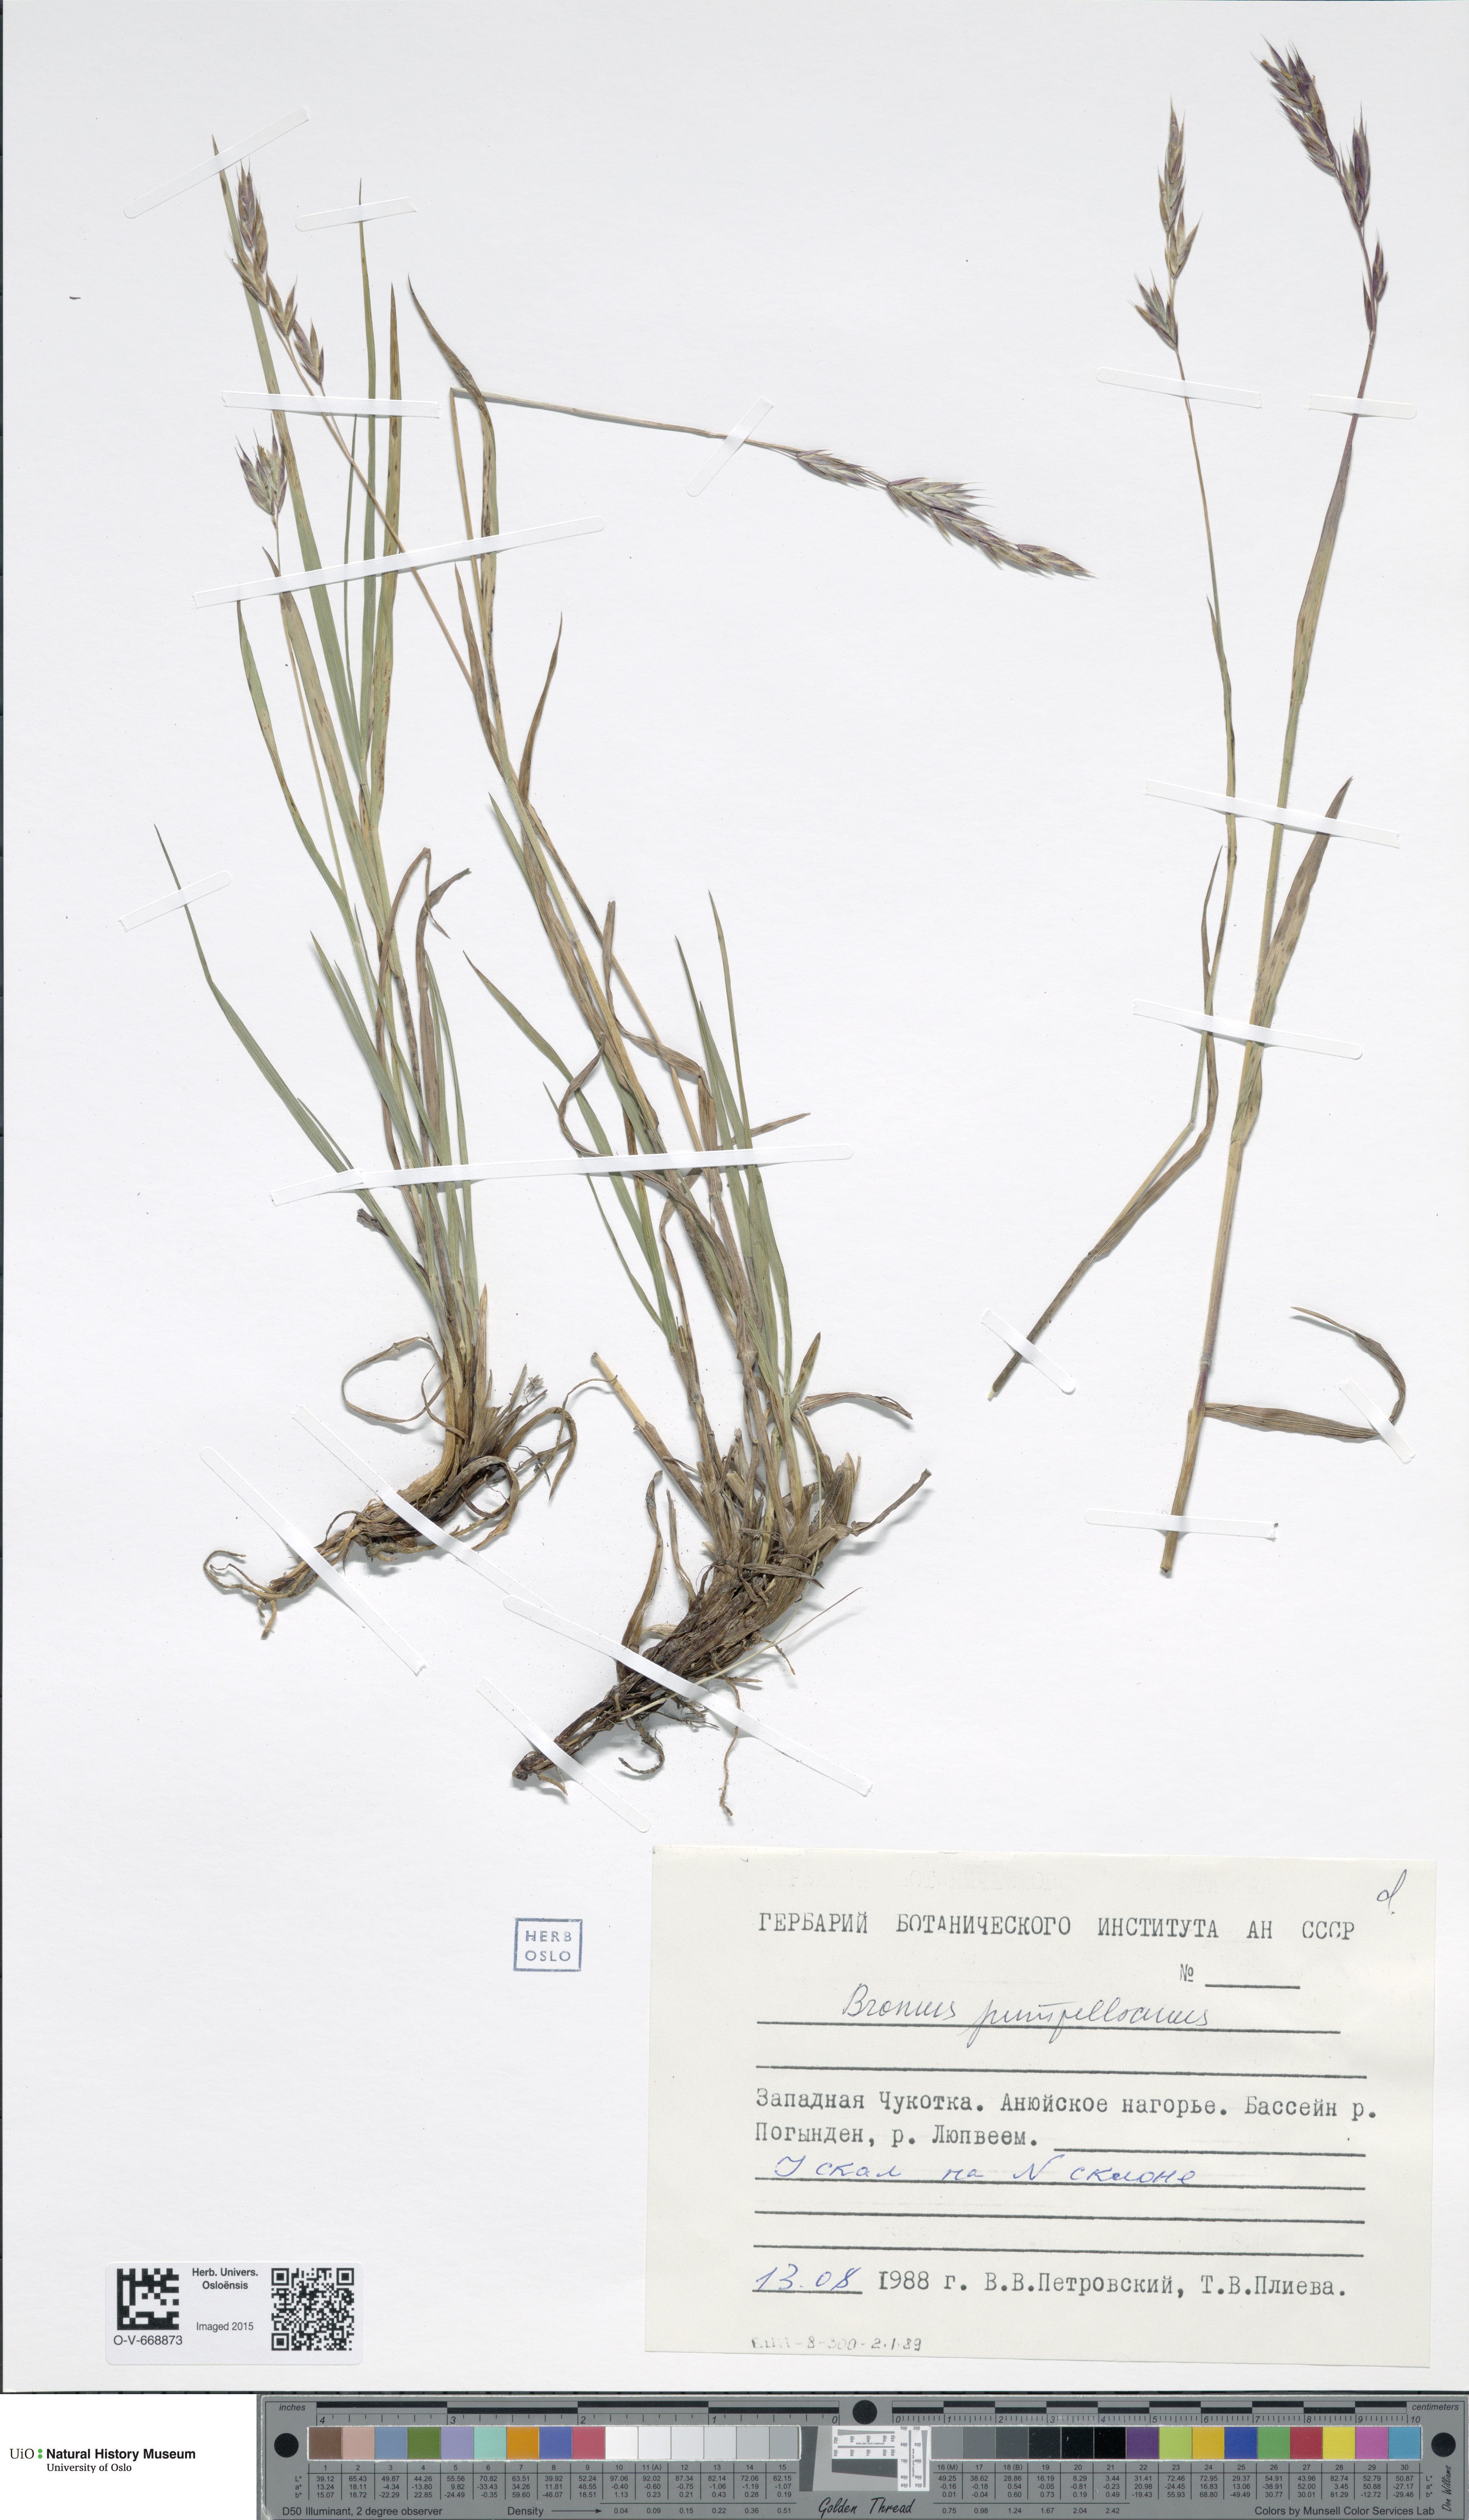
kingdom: Plantae
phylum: Tracheophyta
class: Liliopsida
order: Poales
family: Poaceae
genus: Bromus
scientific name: Bromus pumpellianus
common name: Pumpelly's brome
